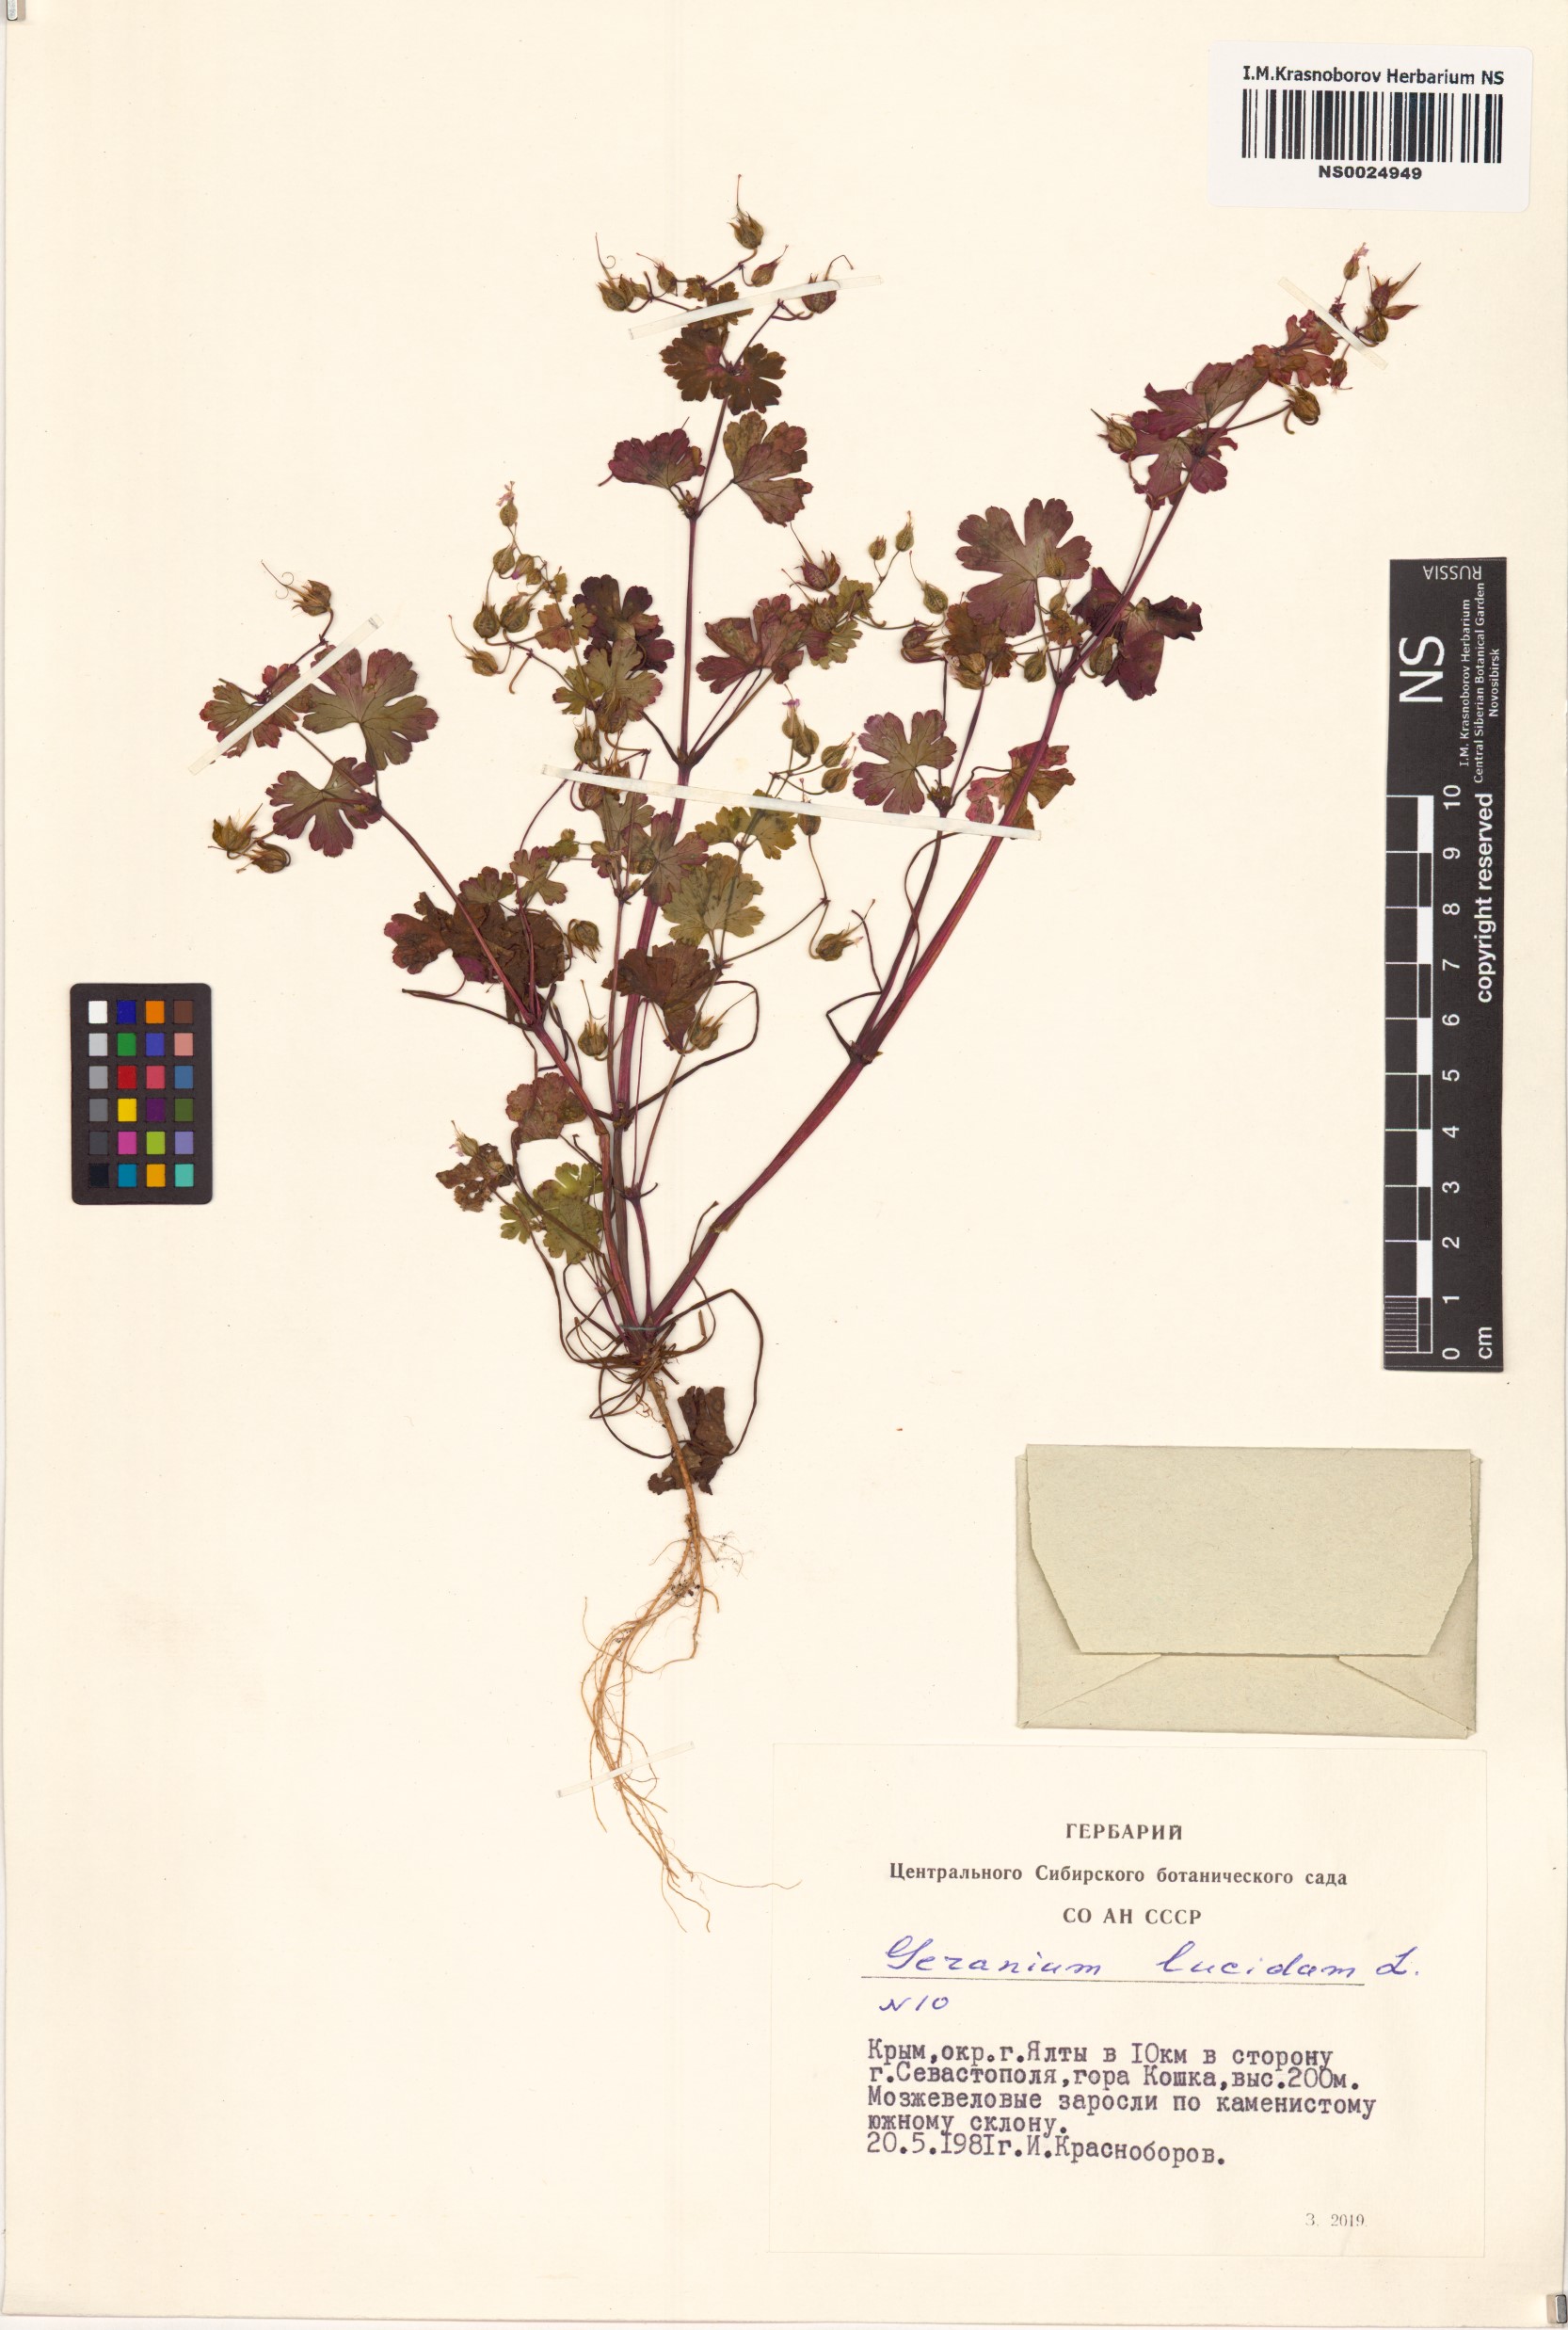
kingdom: Plantae
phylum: Tracheophyta
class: Magnoliopsida
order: Geraniales
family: Geraniaceae
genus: Geranium
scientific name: Geranium lucidum
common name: Shining crane's-bill
